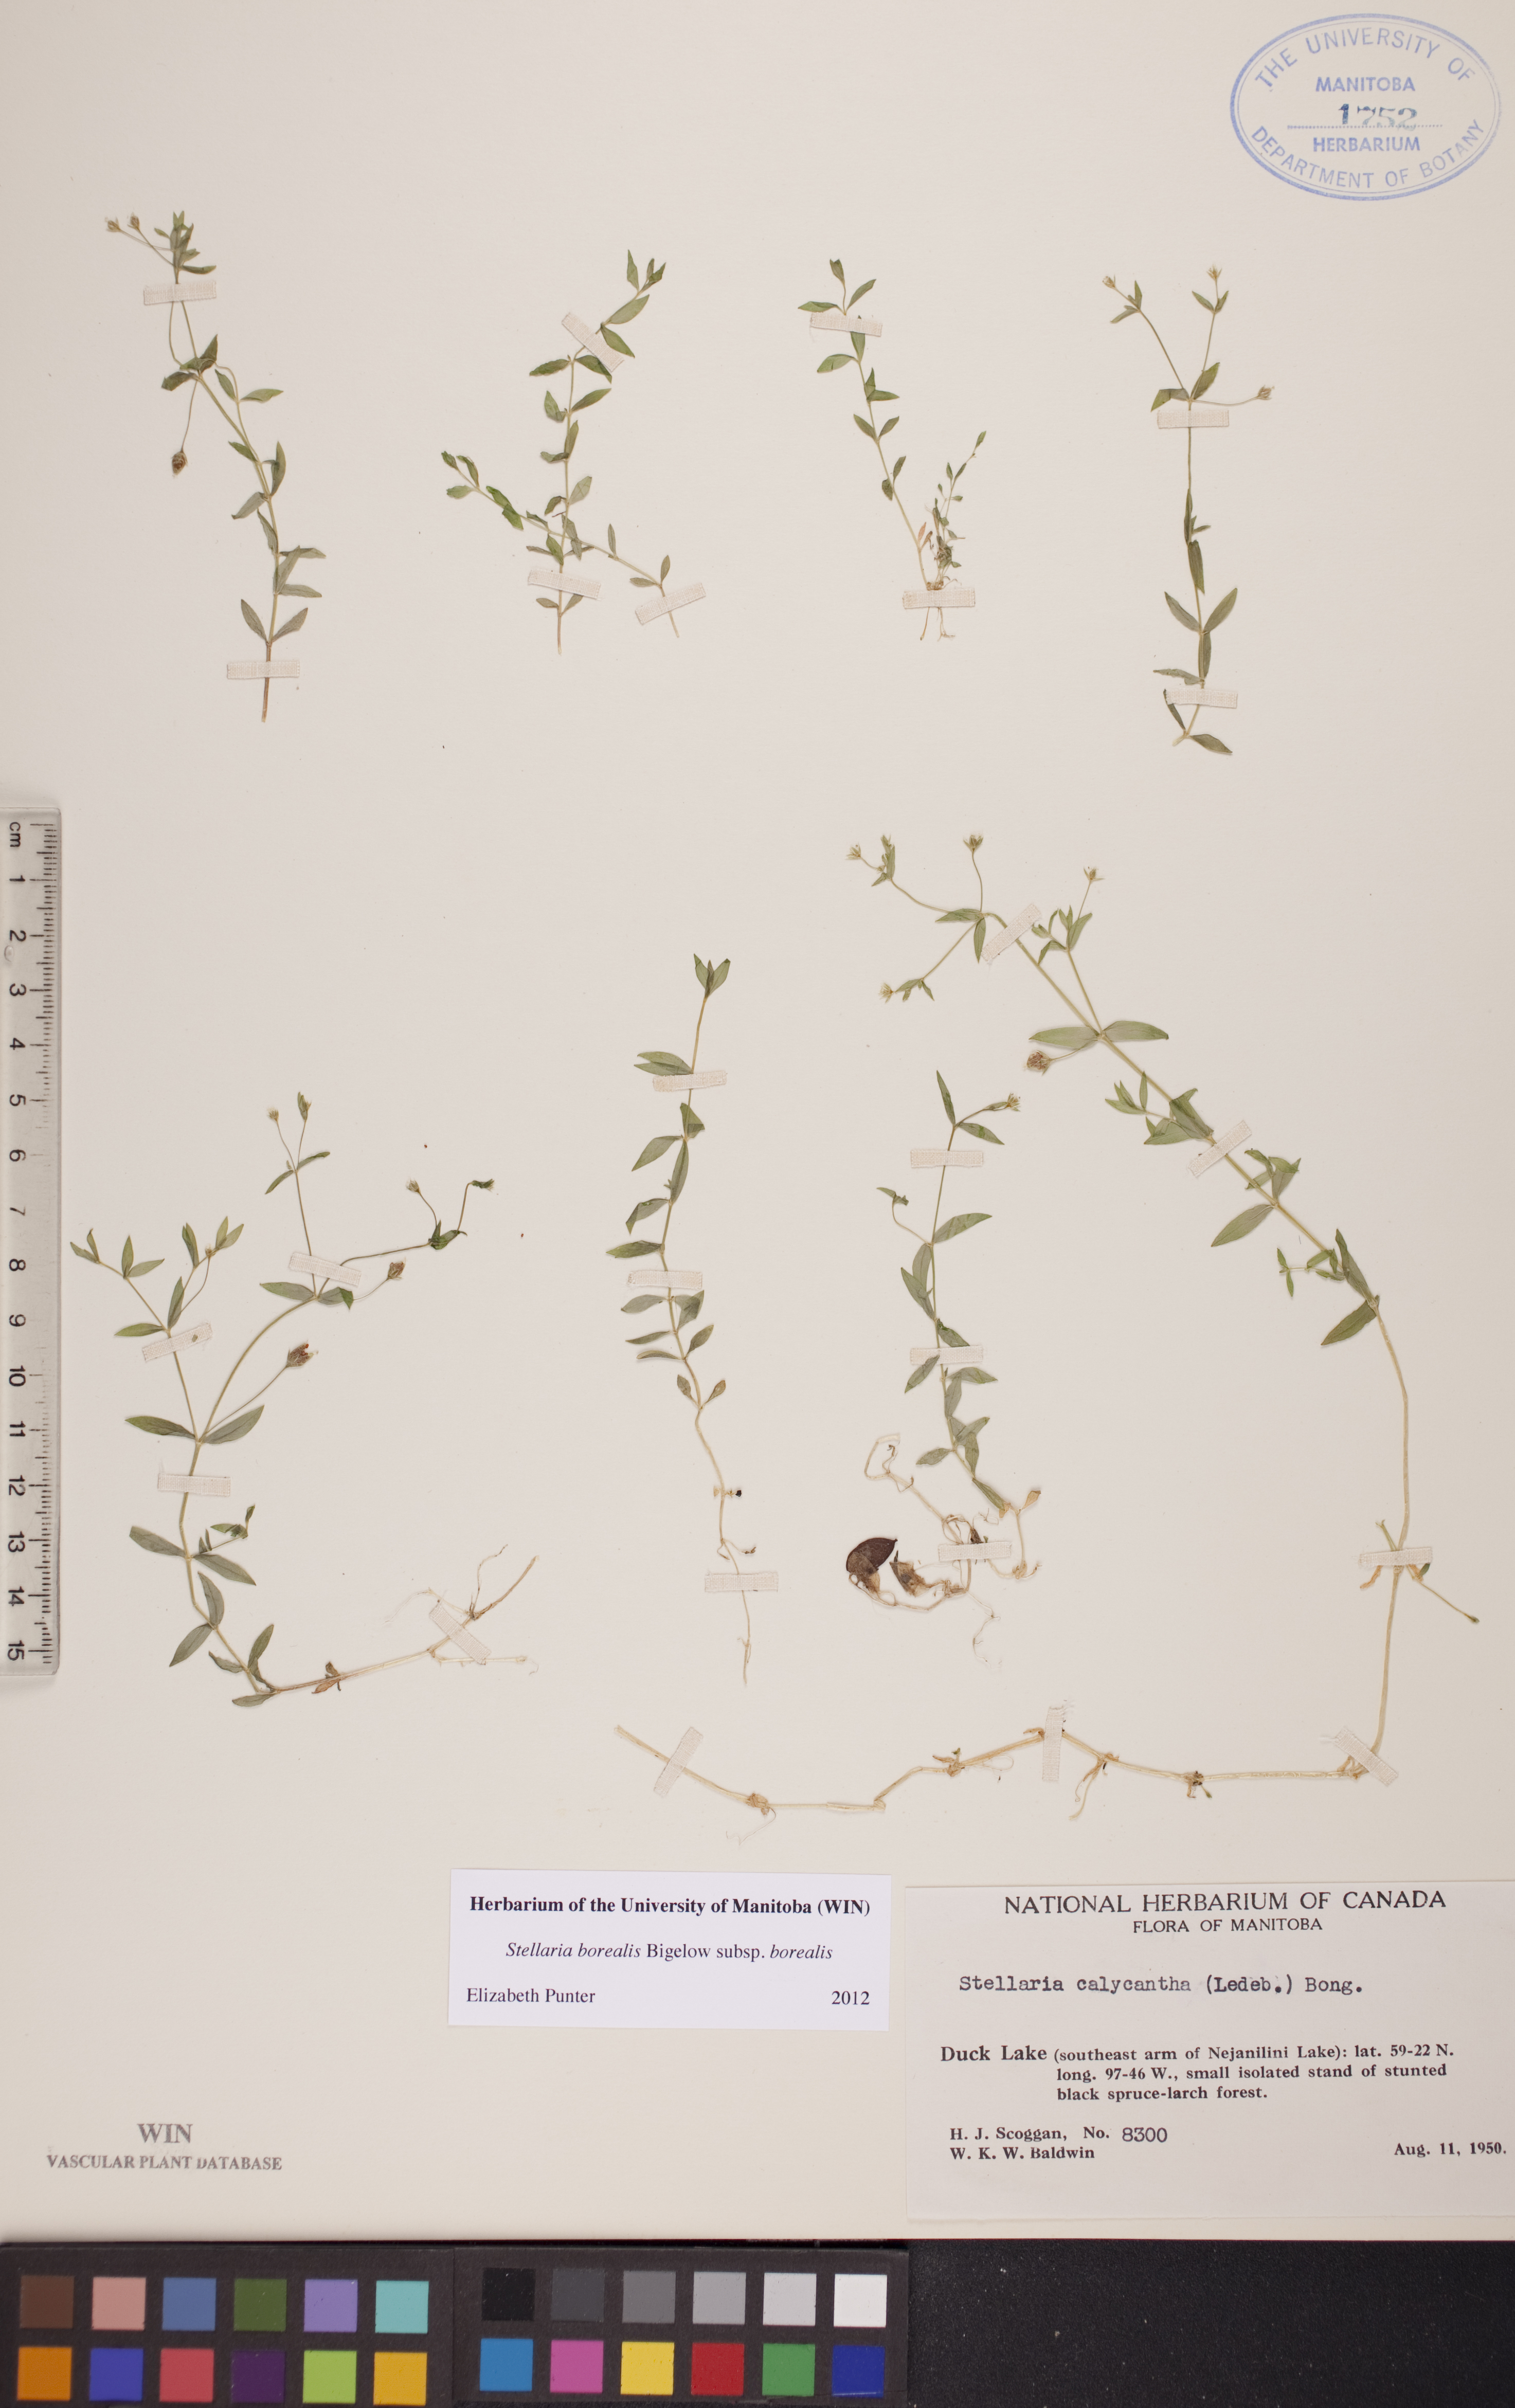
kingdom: Plantae
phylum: Tracheophyta
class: Magnoliopsida
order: Caryophyllales
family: Caryophyllaceae
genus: Stellaria
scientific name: Stellaria borealis
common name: Boreal starwort
